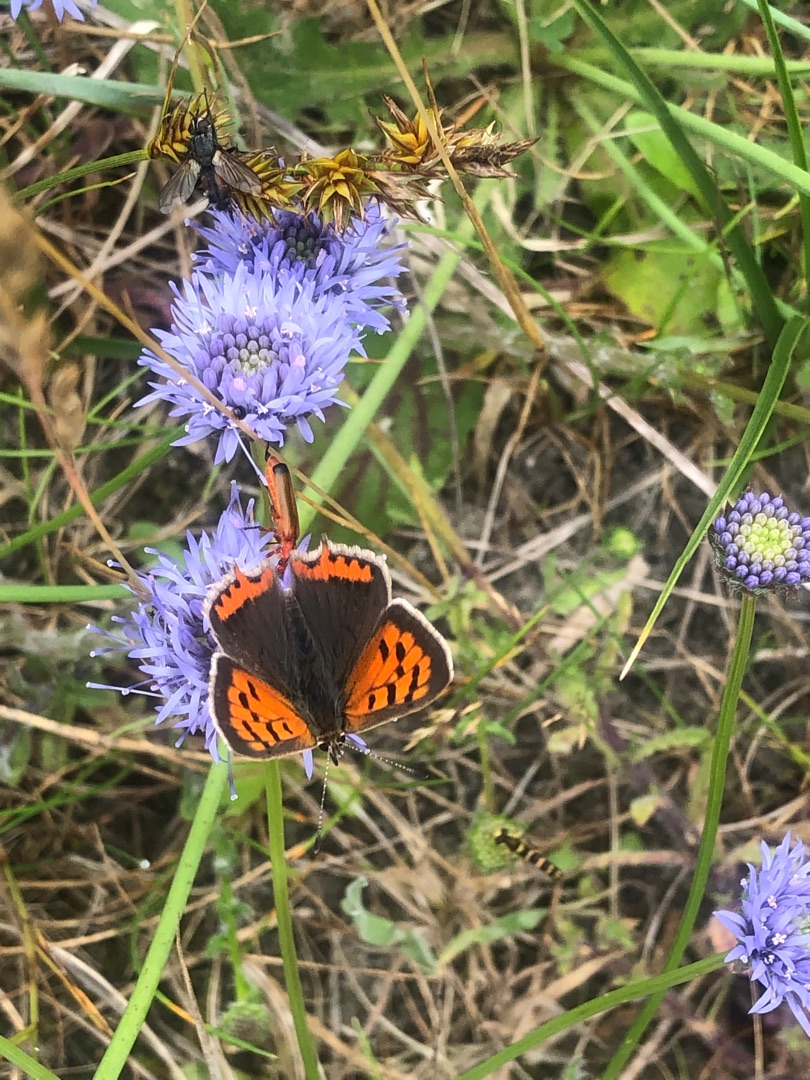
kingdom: Animalia
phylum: Arthropoda
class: Insecta
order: Lepidoptera
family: Lycaenidae
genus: Lycaena
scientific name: Lycaena phlaeas
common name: Lille ildfugl
